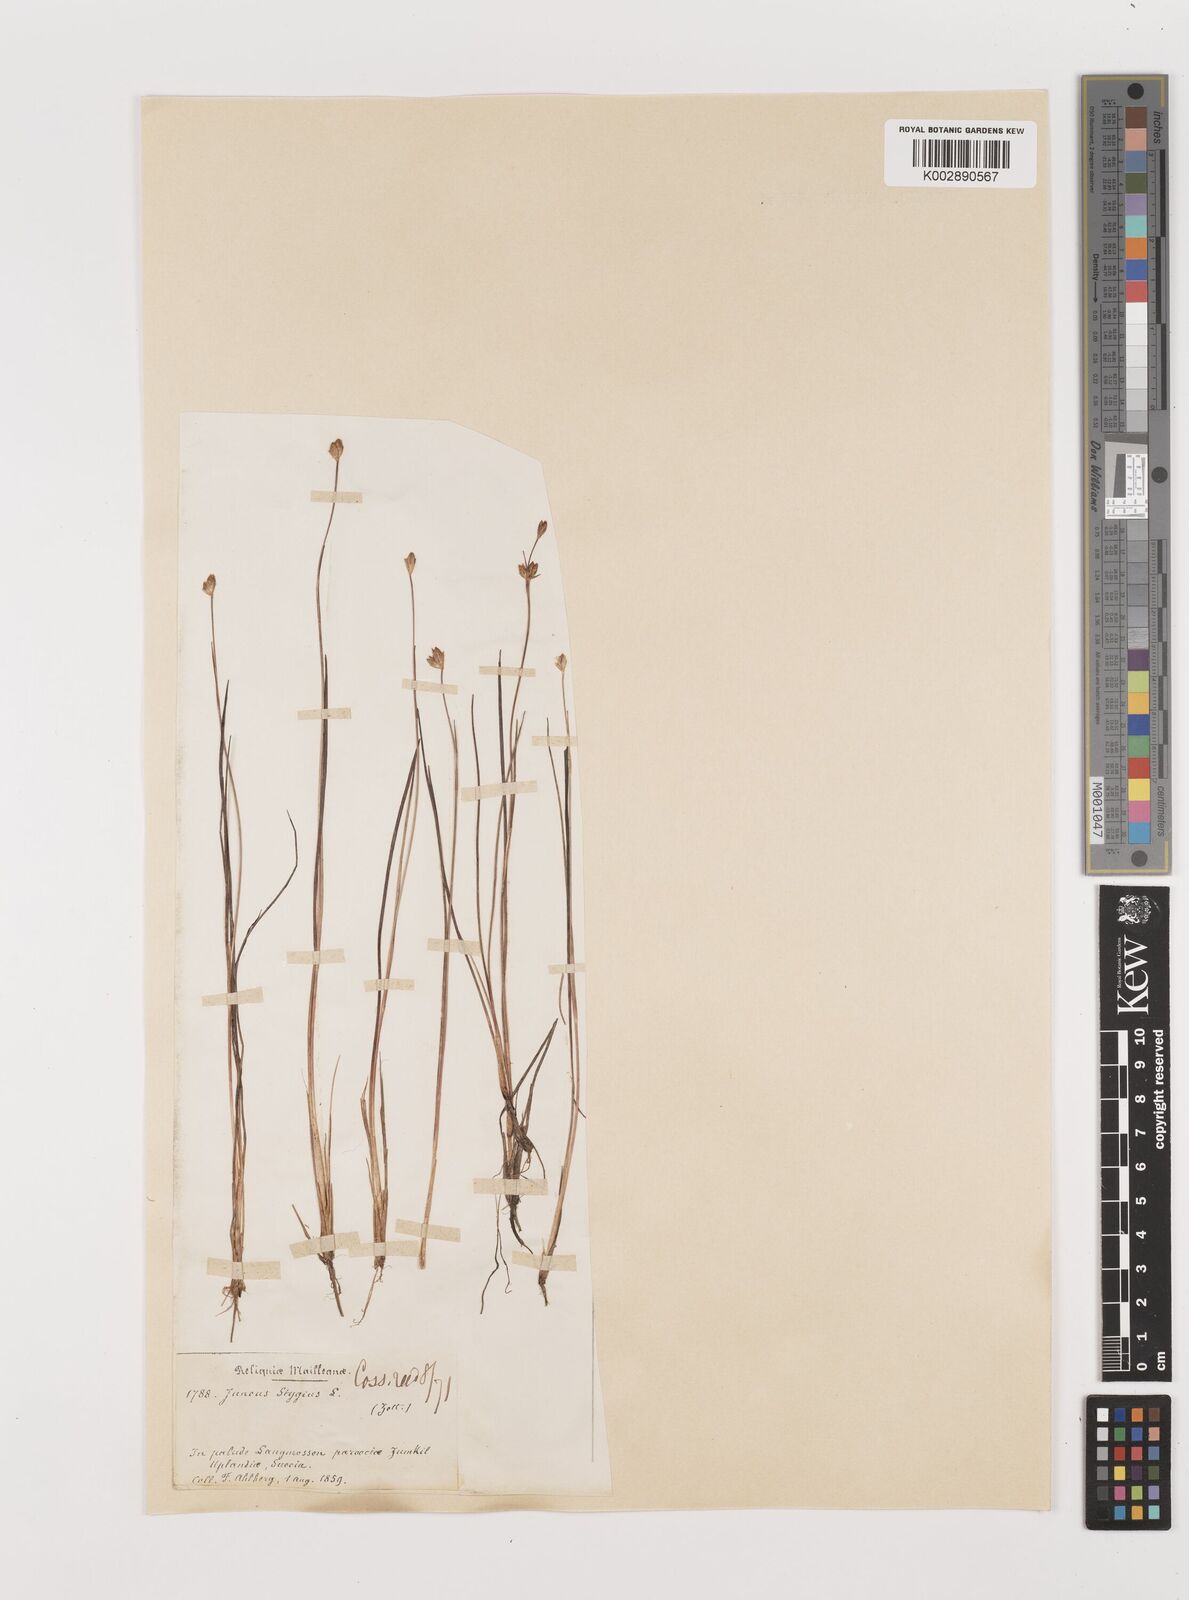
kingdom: Plantae
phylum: Tracheophyta
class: Liliopsida
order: Poales
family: Juncaceae
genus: Juncus
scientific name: Juncus stygius
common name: Bog rush
